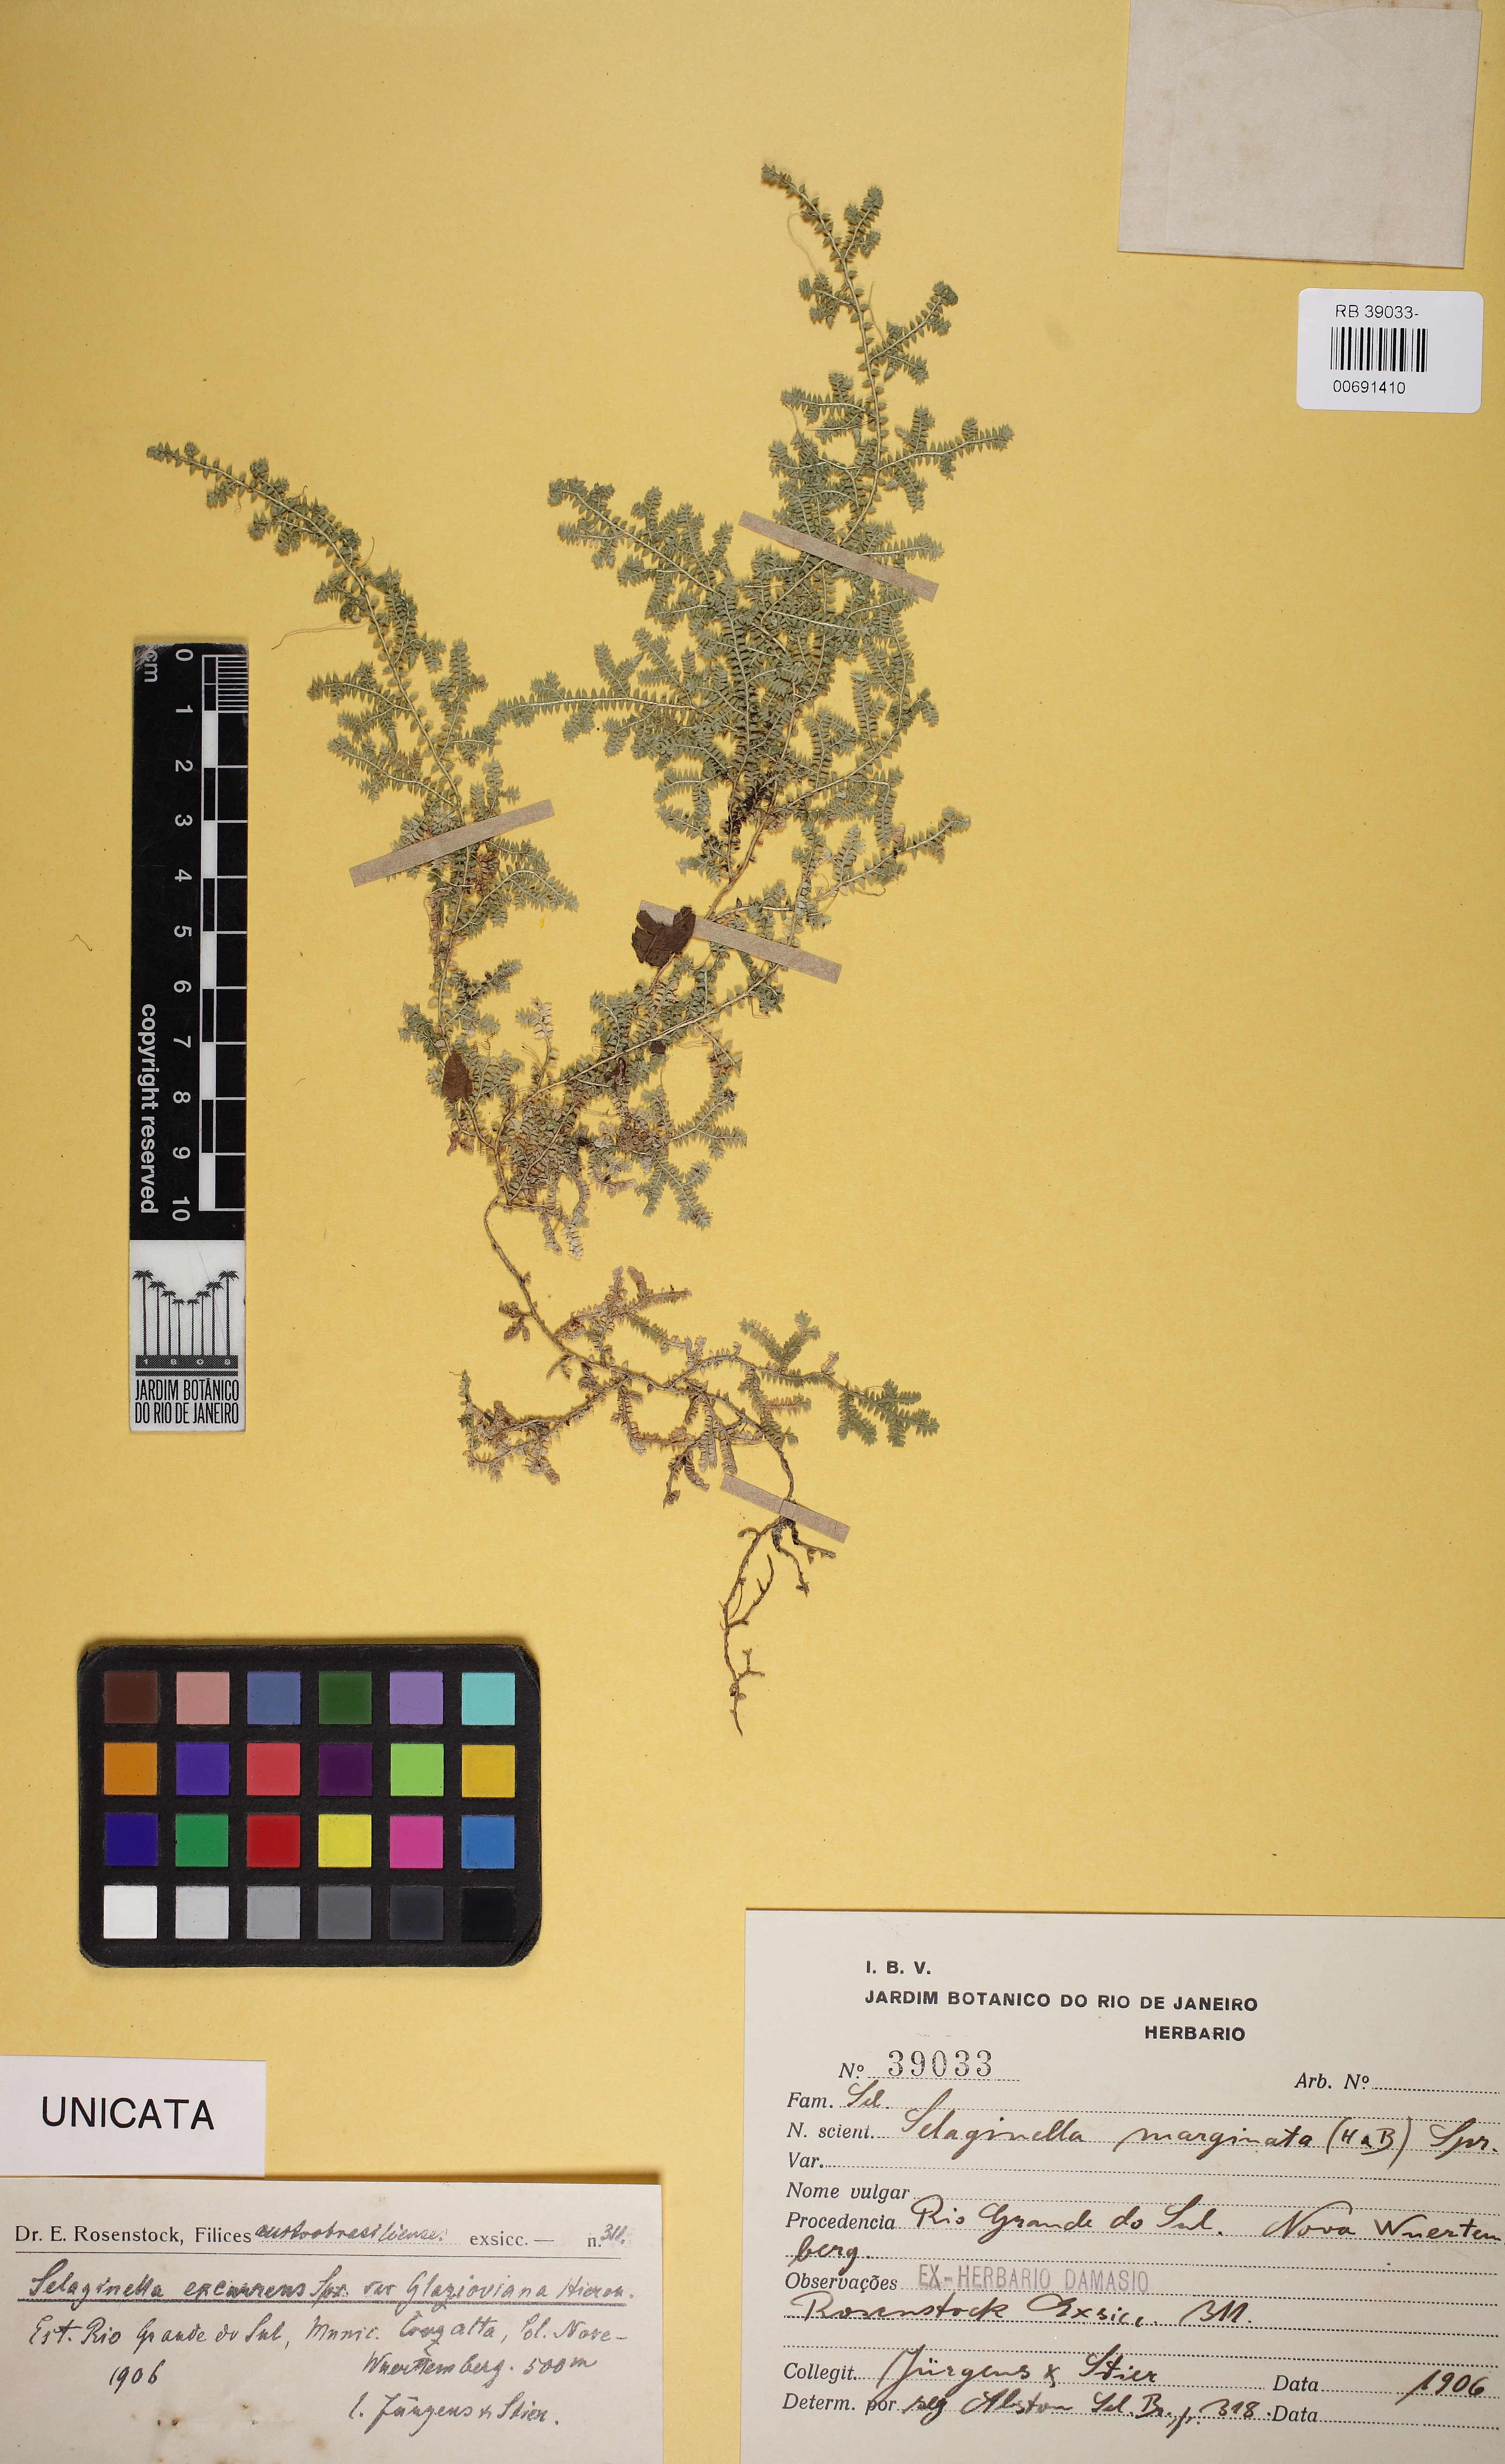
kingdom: Plantae
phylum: Tracheophyta
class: Lycopodiopsida
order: Selaginellales
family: Selaginellaceae
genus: Selaginella
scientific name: Selaginella marginata
